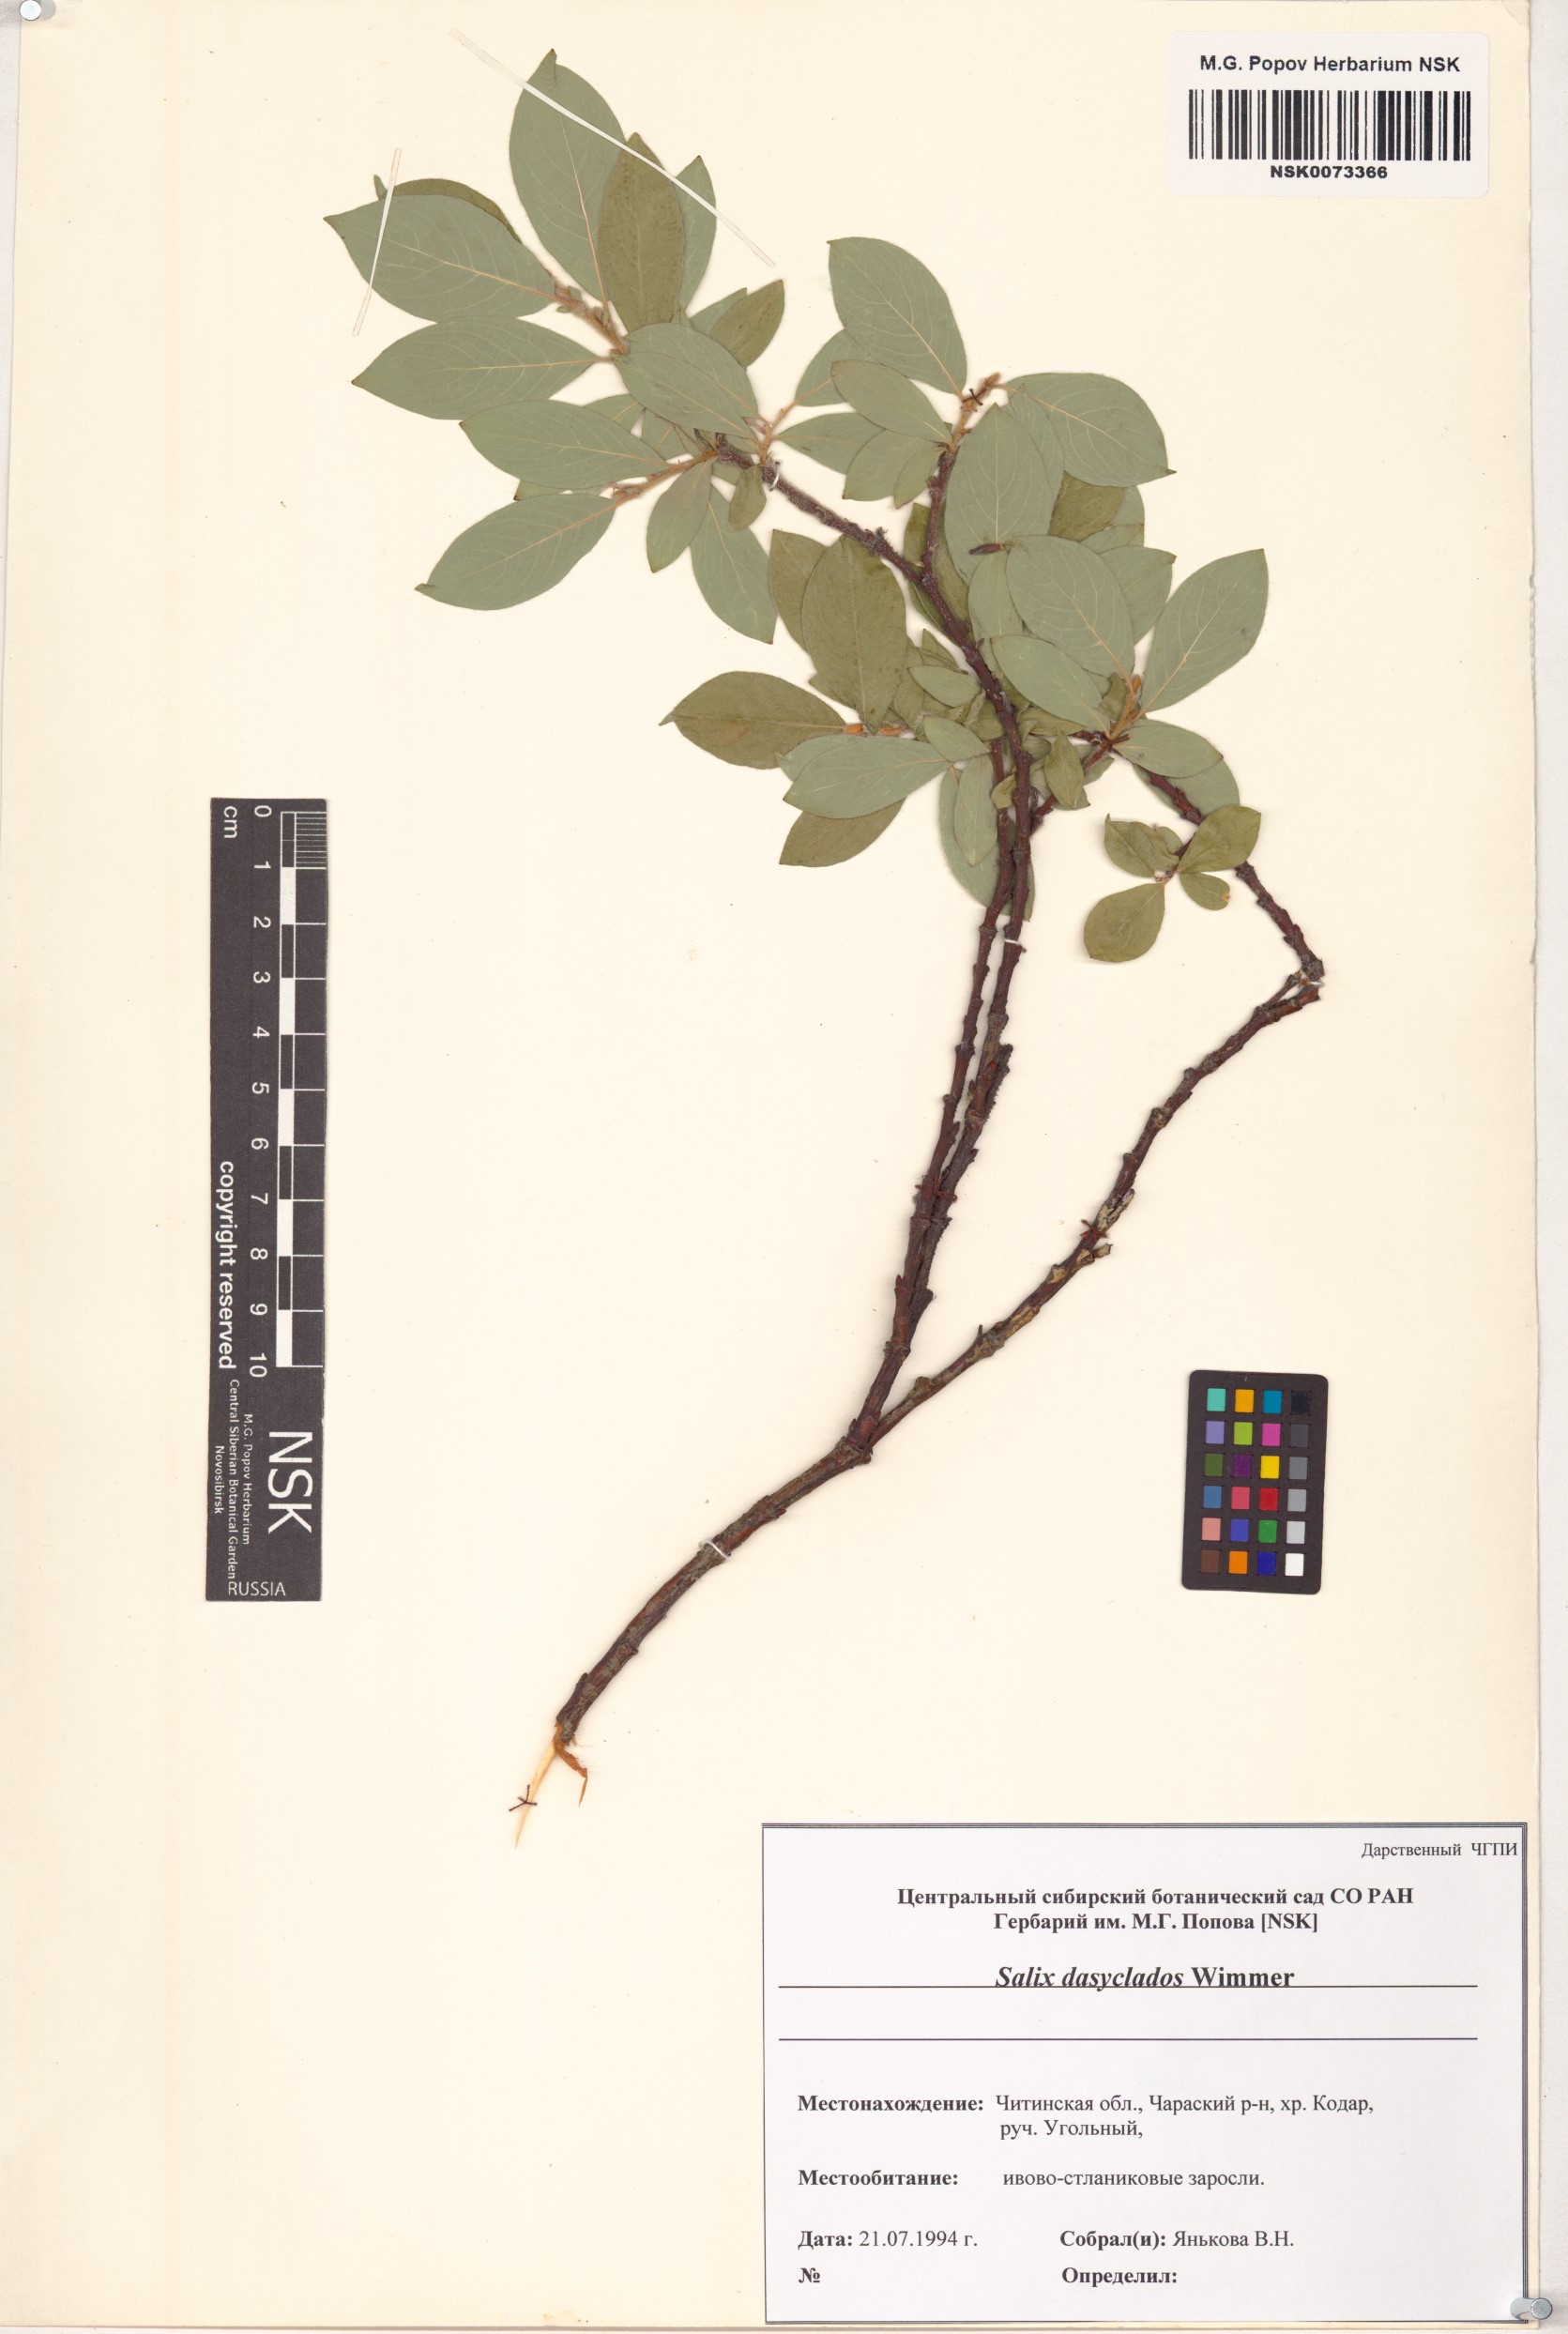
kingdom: Plantae
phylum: Tracheophyta
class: Magnoliopsida
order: Malpighiales
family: Salicaceae
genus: Salix
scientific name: Salix gmelinii
